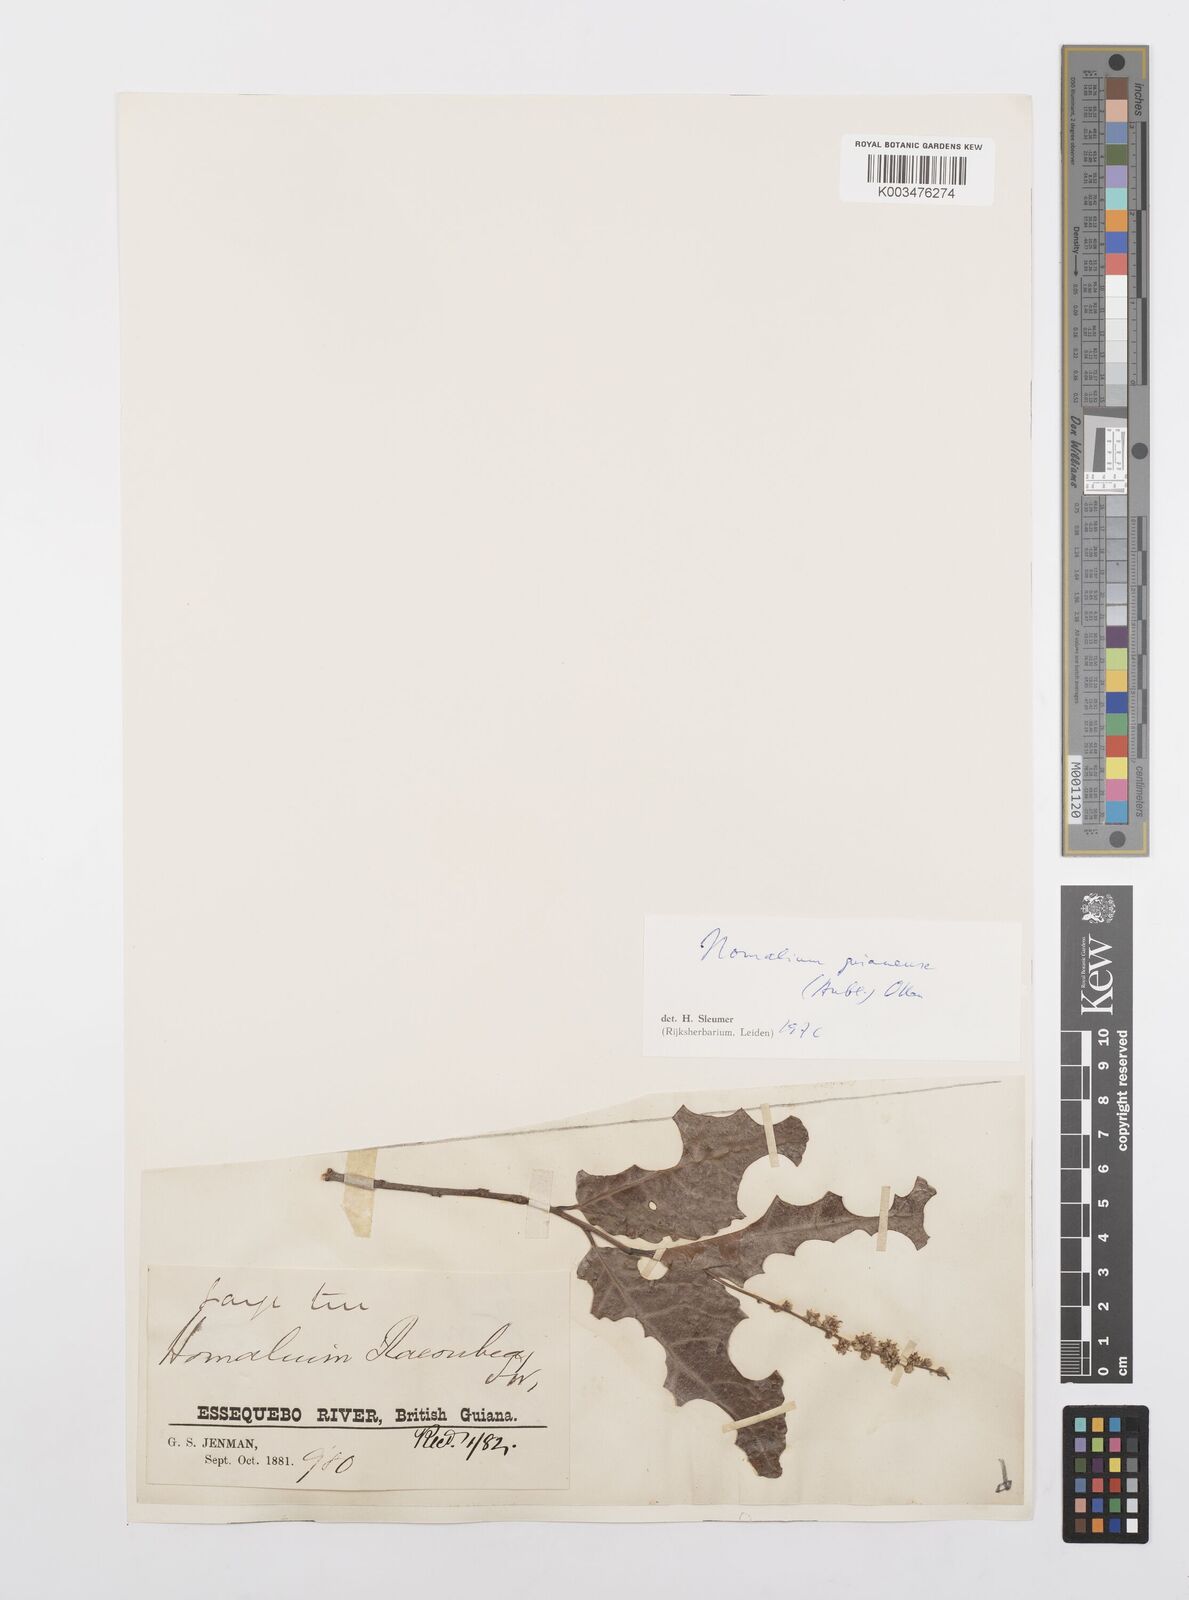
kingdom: Plantae
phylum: Tracheophyta
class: Magnoliopsida
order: Malpighiales
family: Salicaceae
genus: Homalium
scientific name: Homalium guianense
